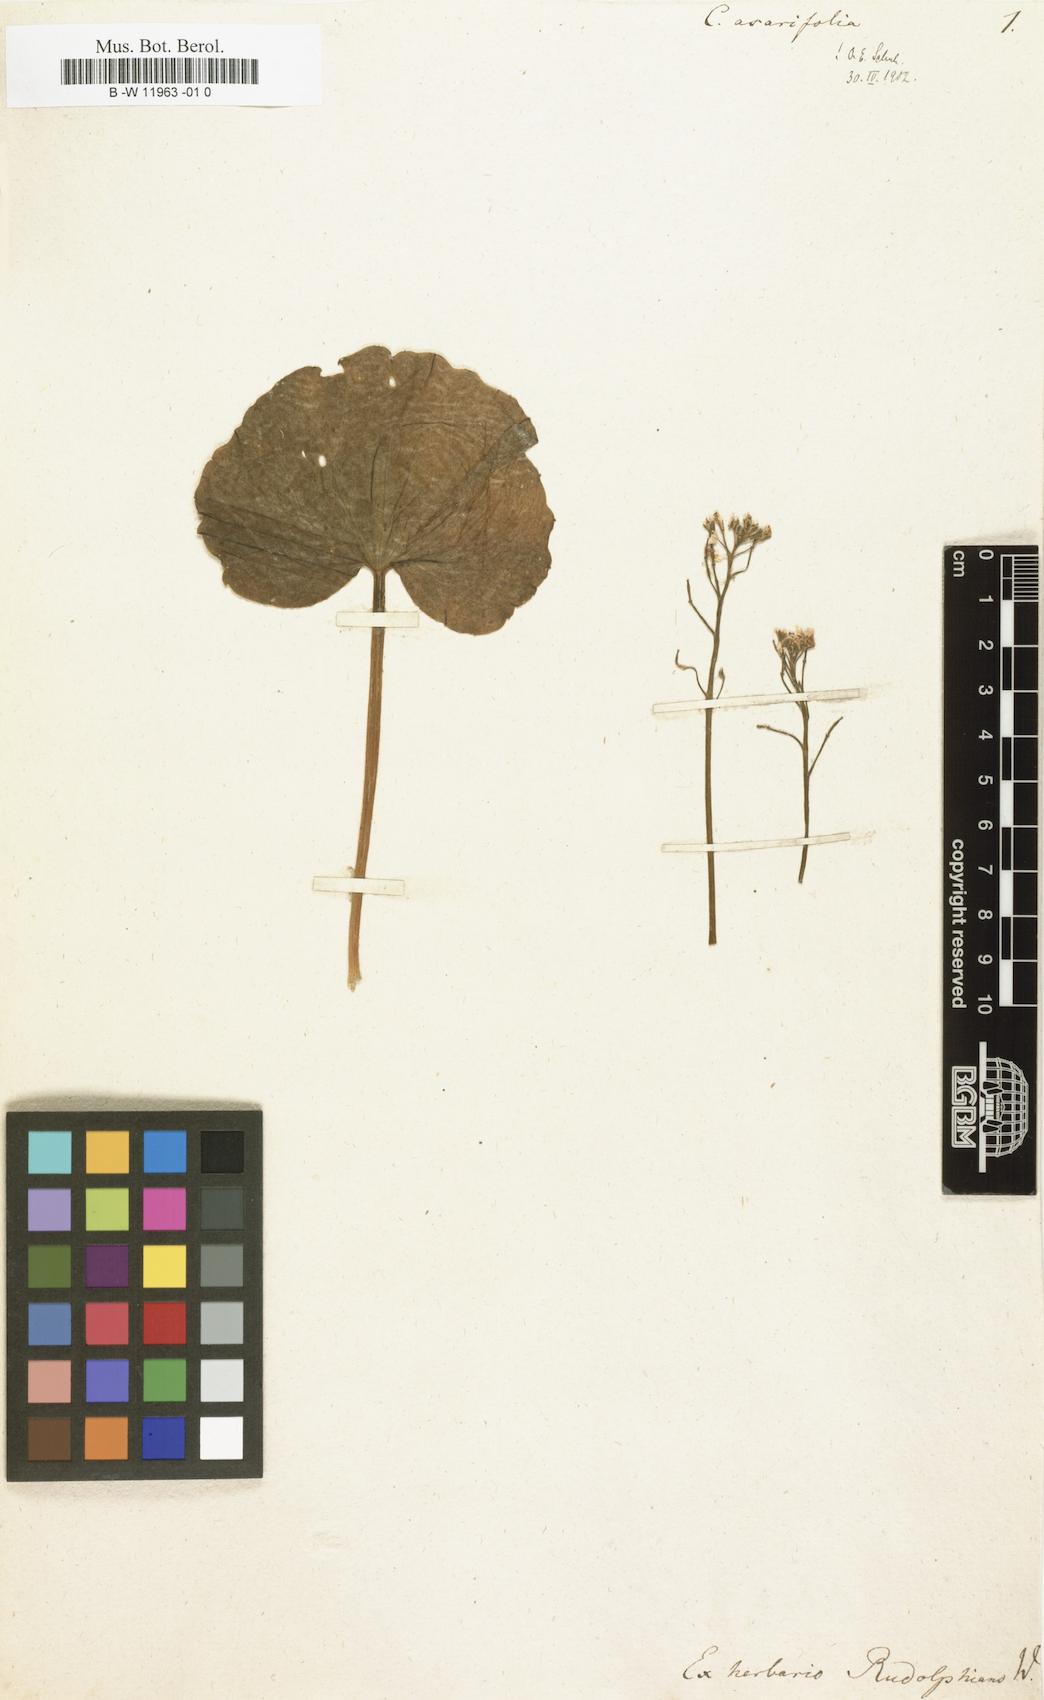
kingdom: Plantae
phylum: Tracheophyta
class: Magnoliopsida
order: Brassicales
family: Brassicaceae
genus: Cardamine
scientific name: Cardamine asarifolia
